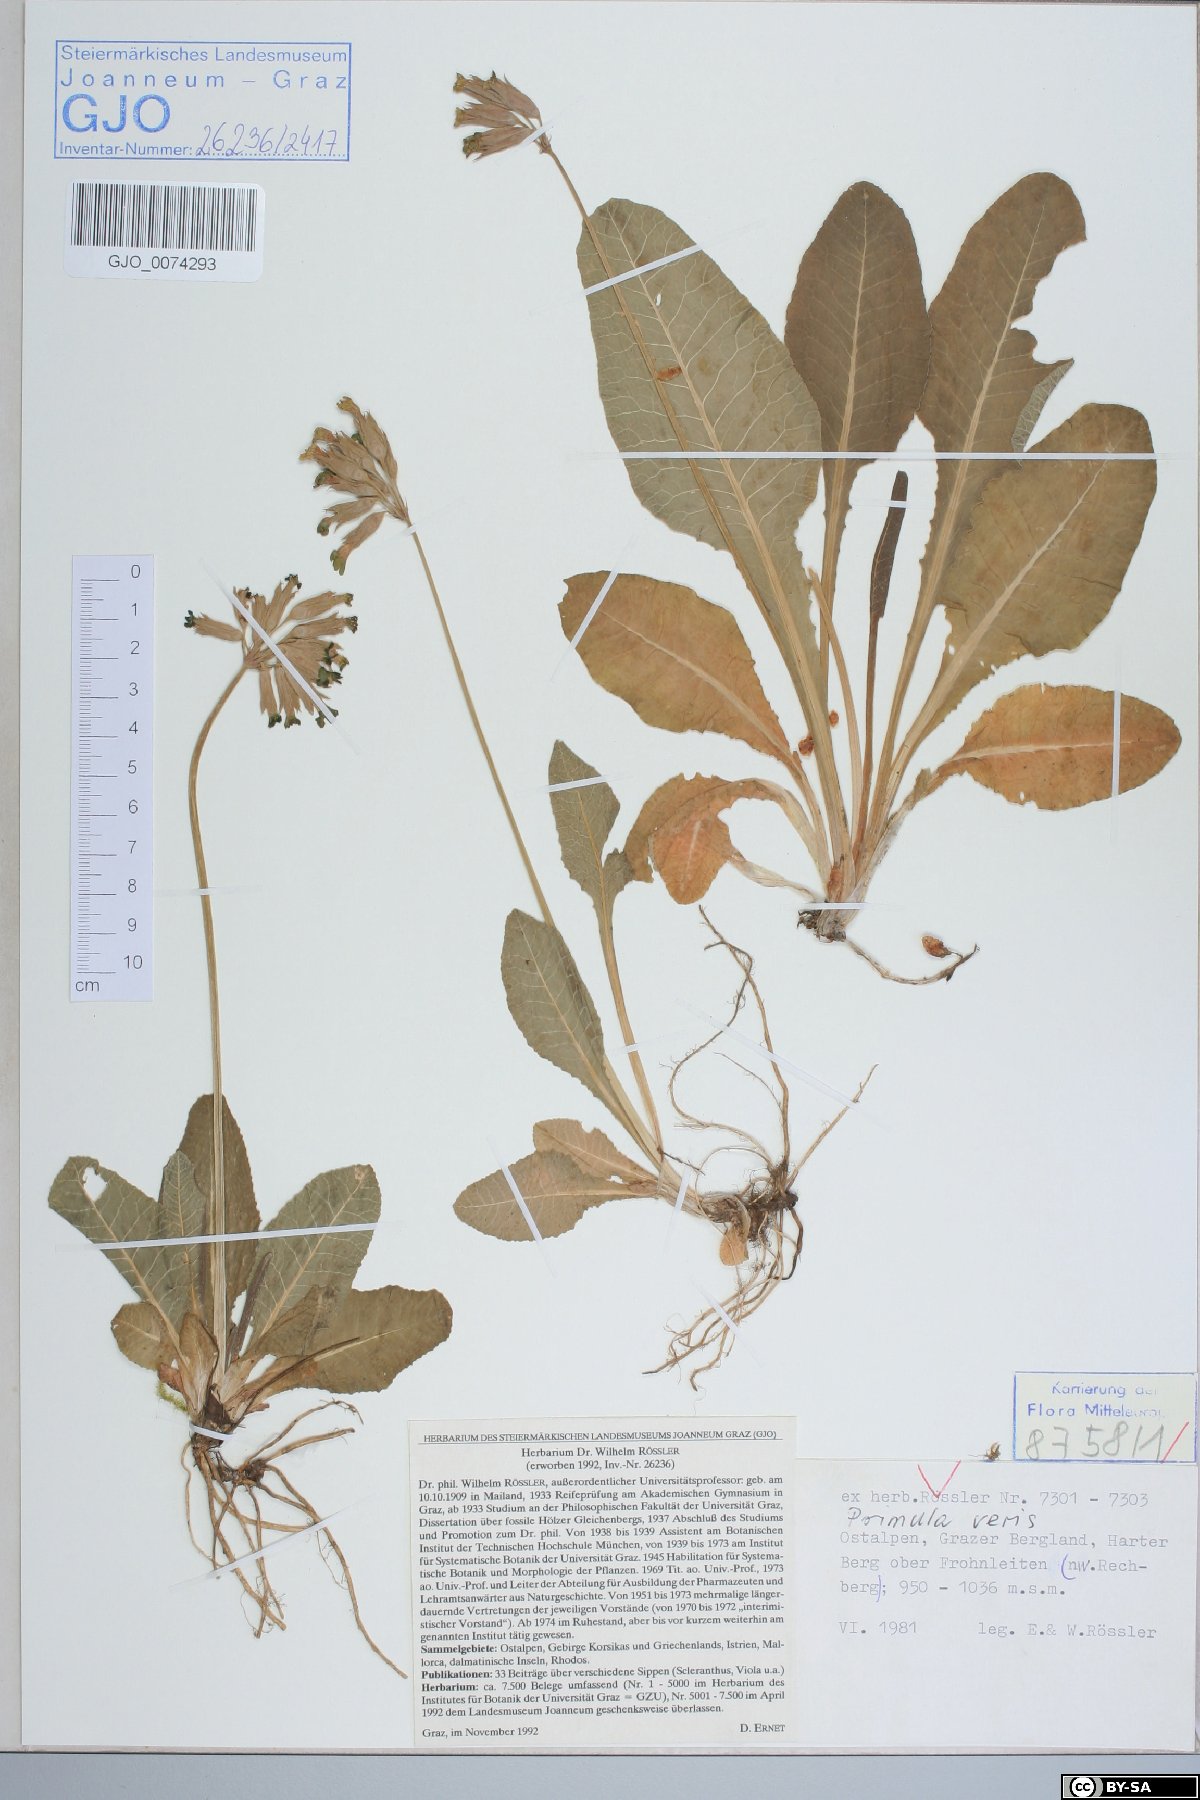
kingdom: Plantae
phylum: Tracheophyta
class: Magnoliopsida
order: Ericales
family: Primulaceae
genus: Primula
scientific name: Primula veris
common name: Cowslip
